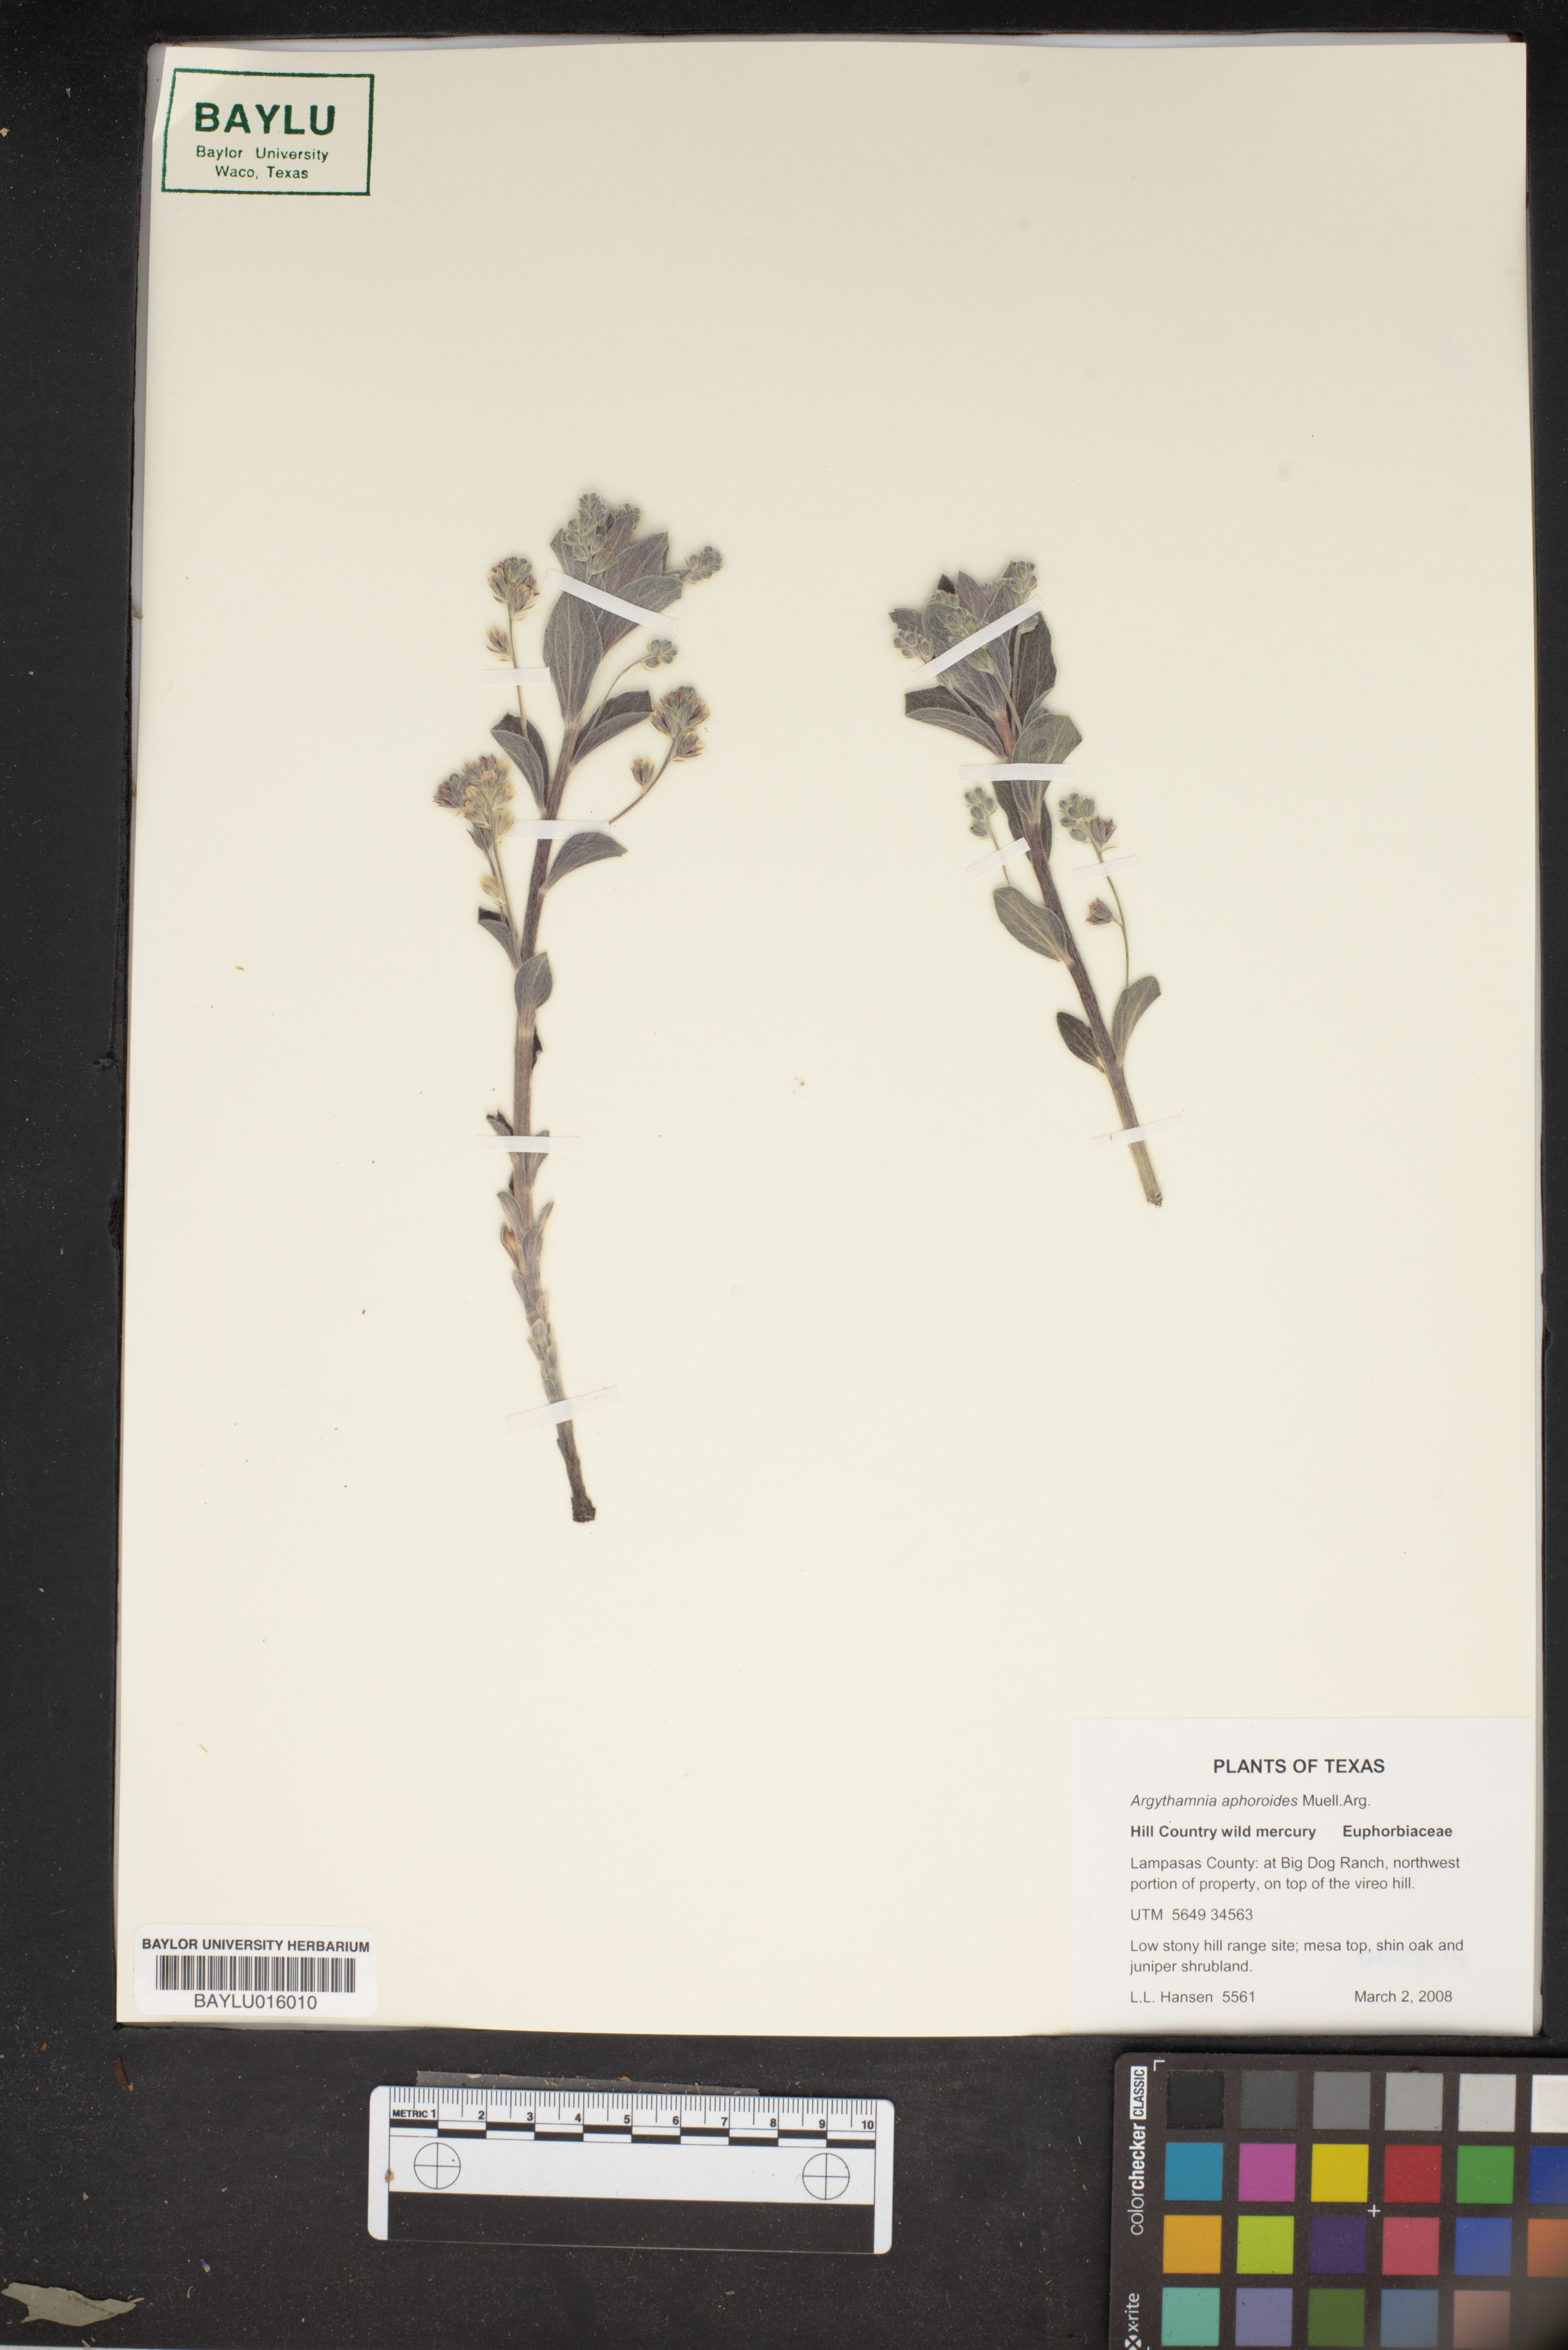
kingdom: Plantae
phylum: Tracheophyta
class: Magnoliopsida
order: Malpighiales
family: Euphorbiaceae
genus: Ditaxis
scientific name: Ditaxis aphoroides
